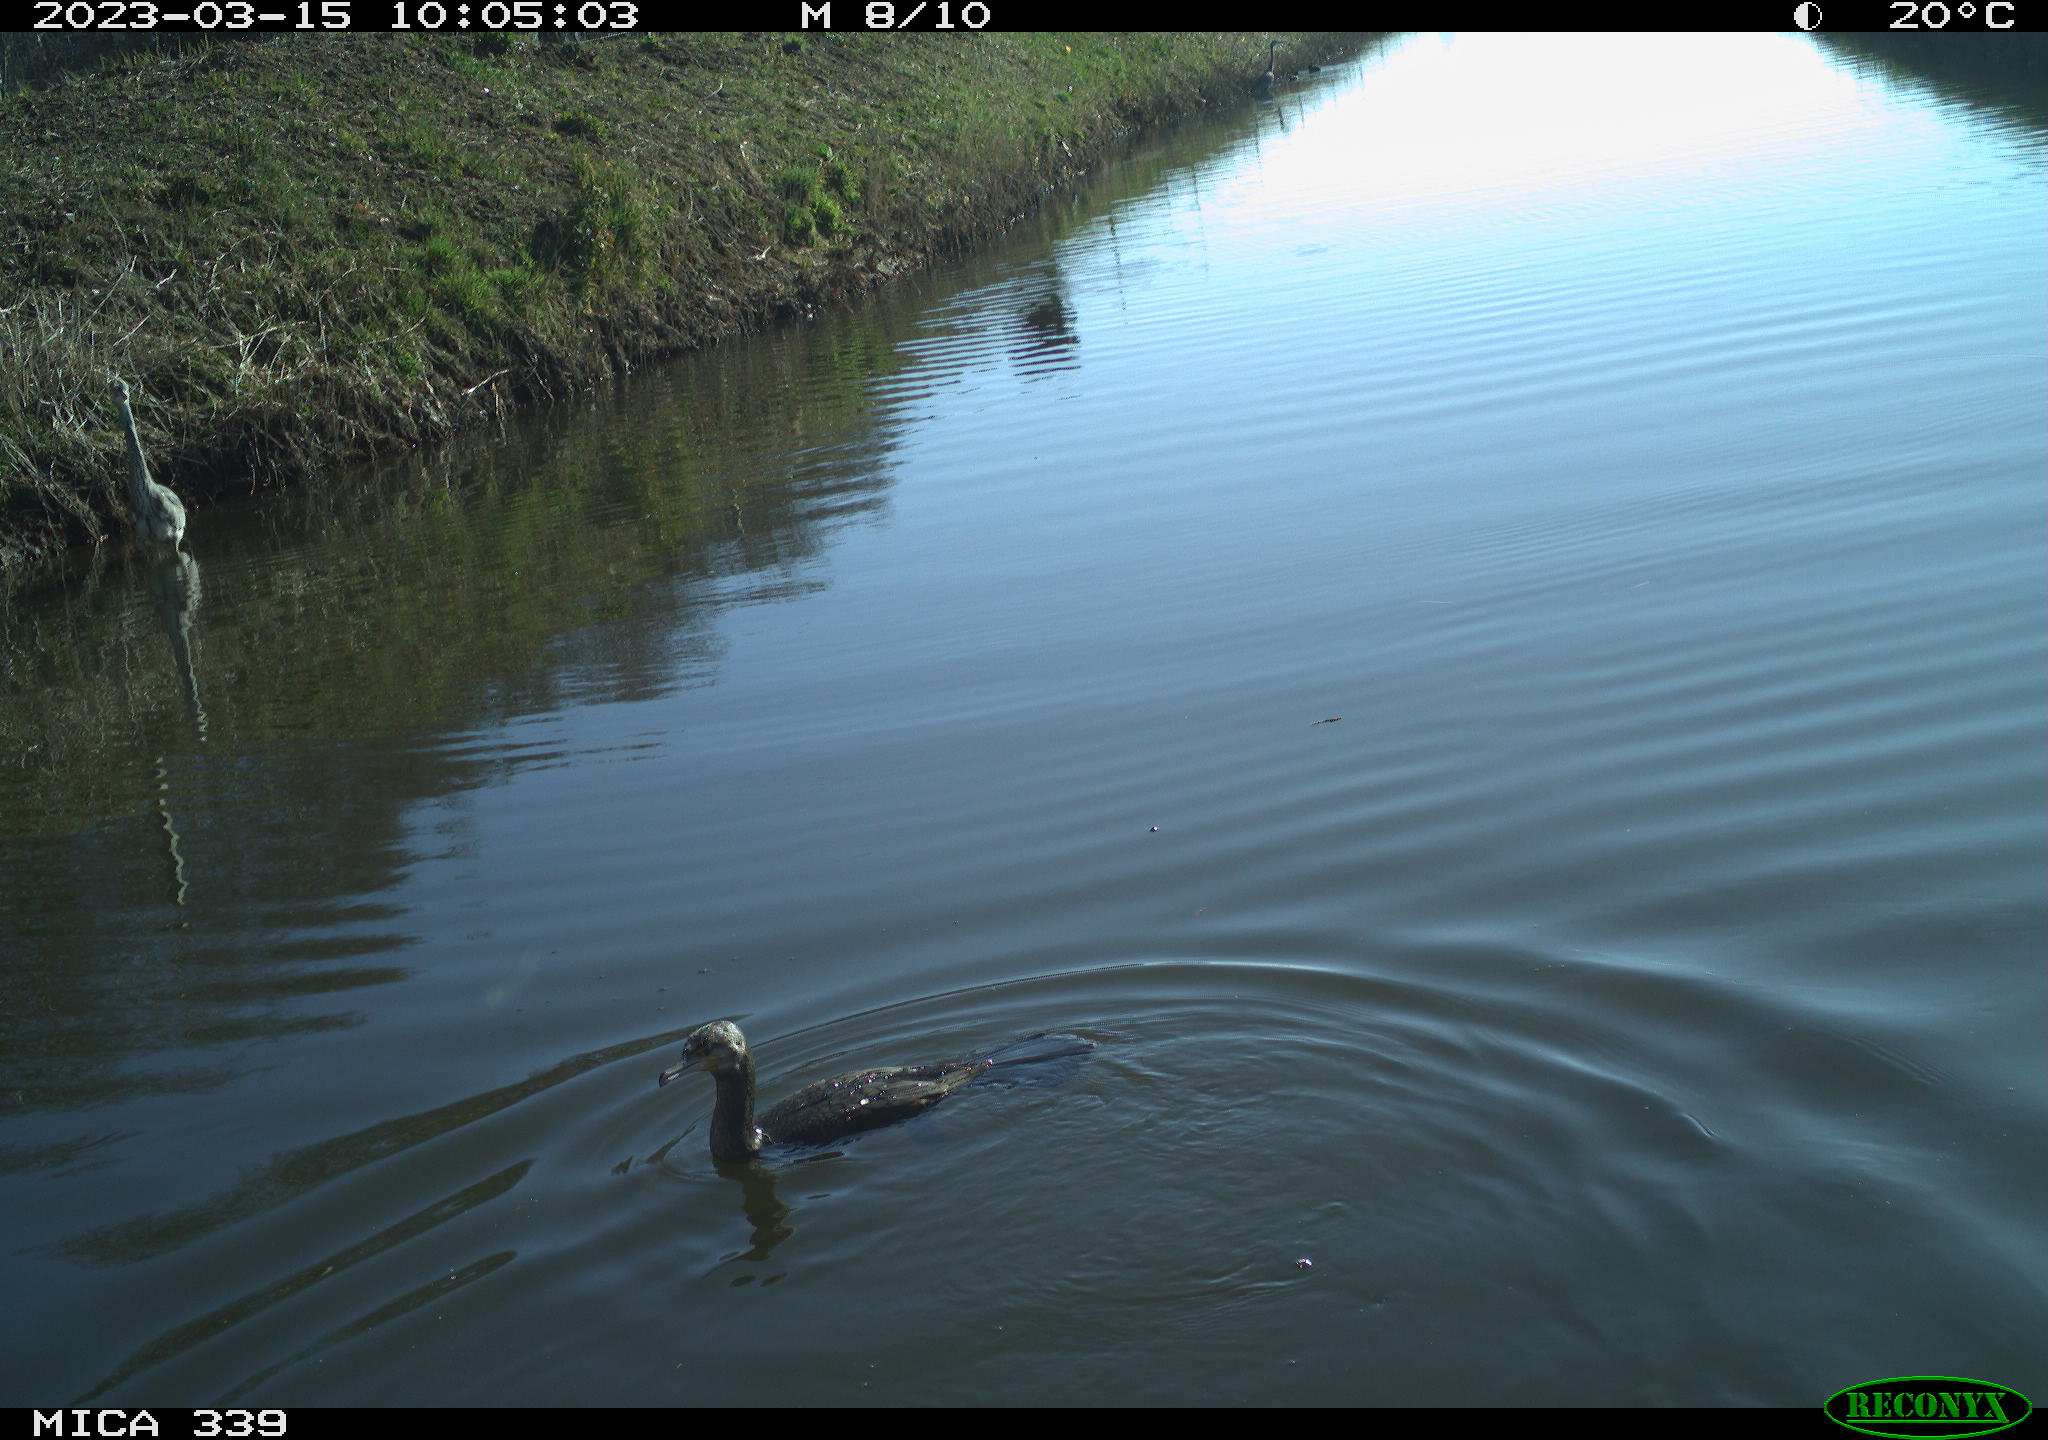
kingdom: Animalia
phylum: Chordata
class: Aves
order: Pelecaniformes
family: Ardeidae
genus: Ardea
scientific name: Ardea cinerea
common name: Grey heron
